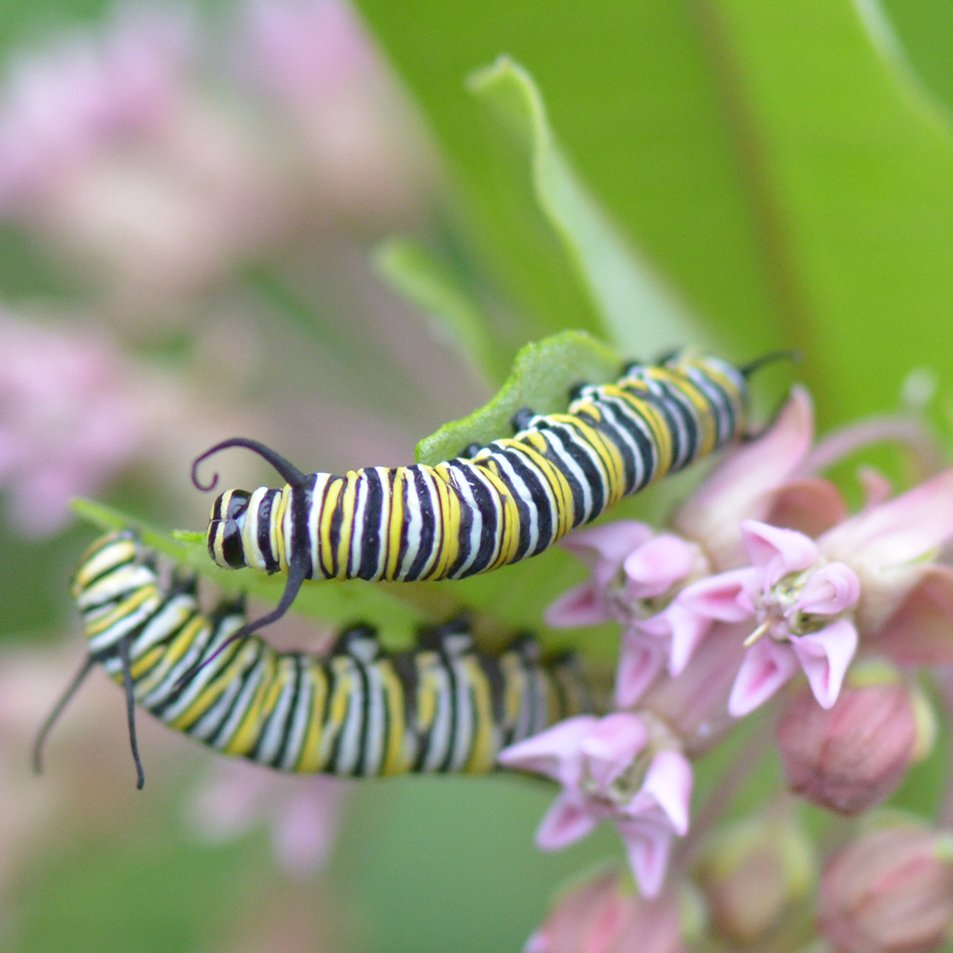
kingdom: Animalia
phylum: Arthropoda
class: Insecta
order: Lepidoptera
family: Nymphalidae
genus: Danaus
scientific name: Danaus plexippus
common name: Monarch
